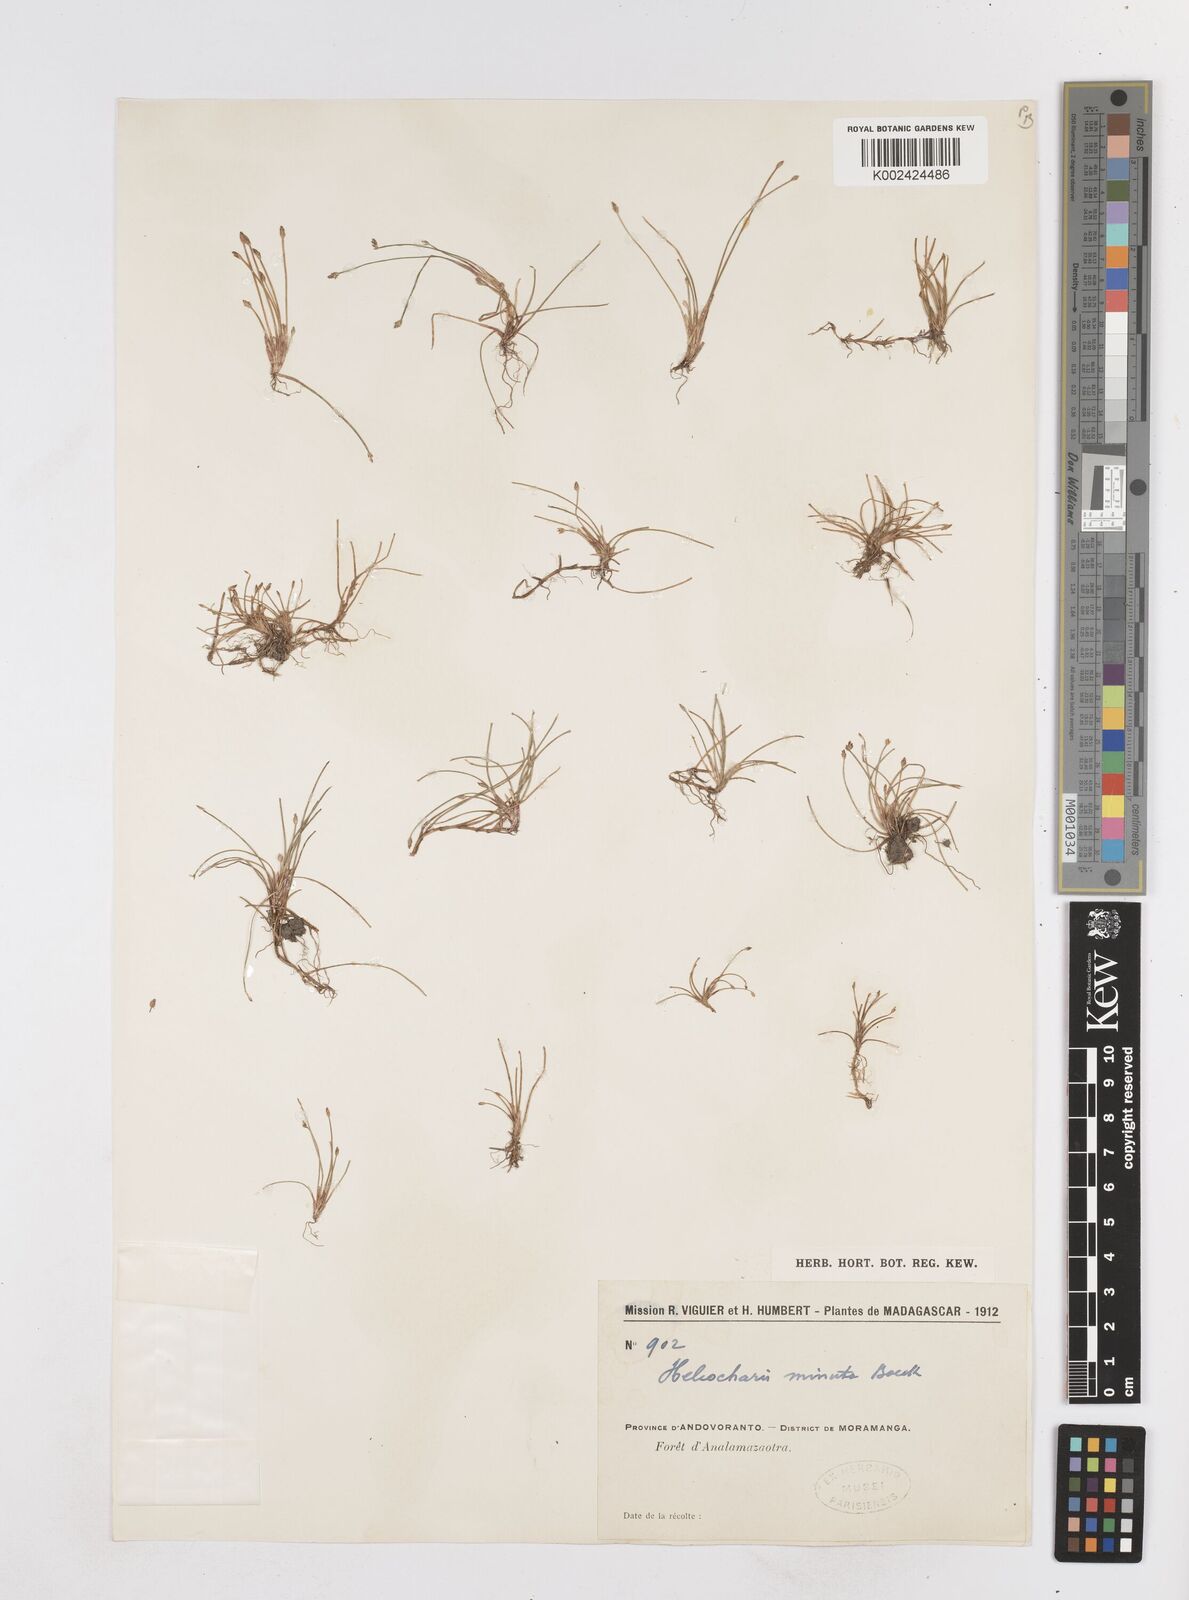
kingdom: Plantae
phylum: Tracheophyta
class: Liliopsida
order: Poales
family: Cyperaceae
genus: Eleocharis
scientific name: Eleocharis minuta
